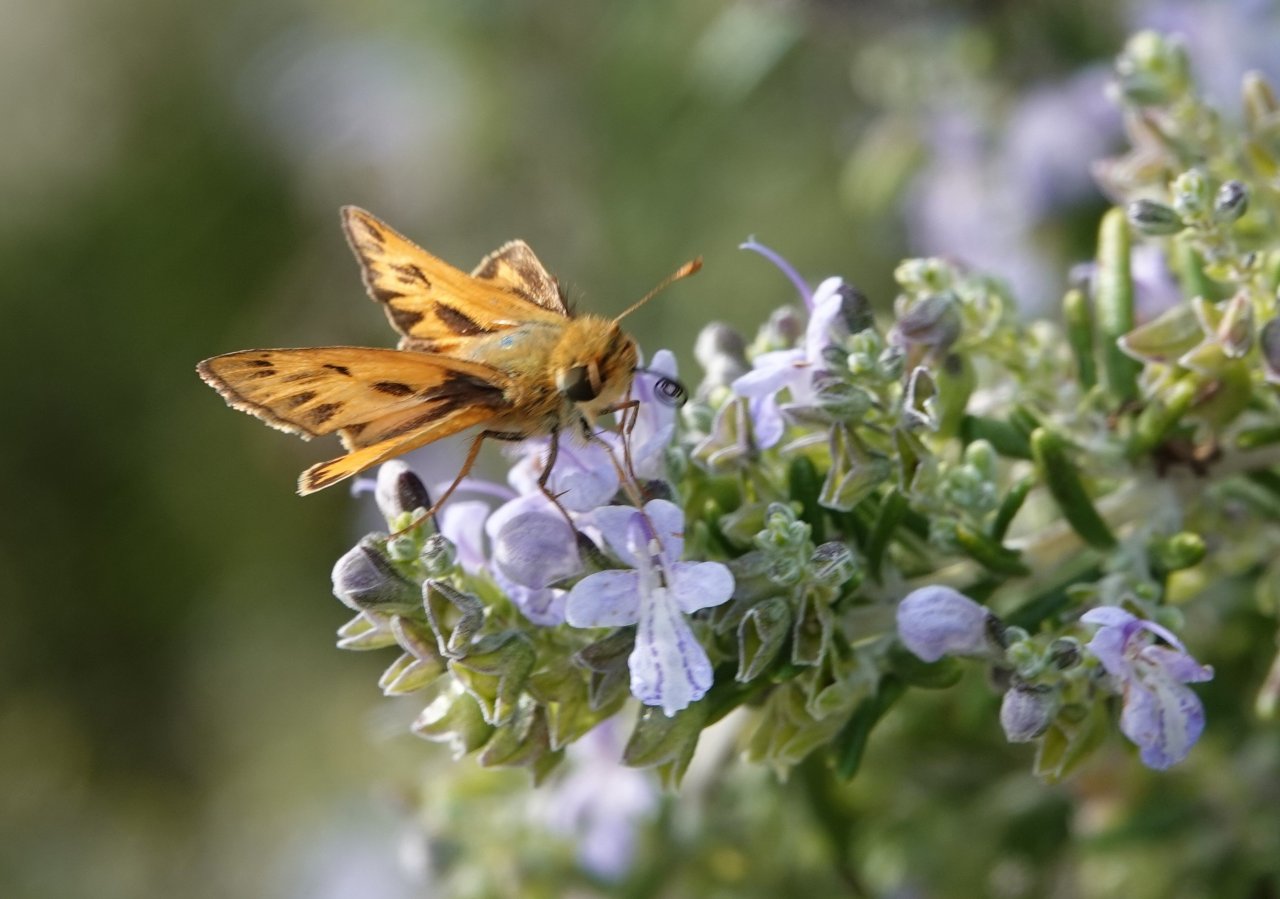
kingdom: Animalia
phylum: Arthropoda
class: Insecta
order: Lepidoptera
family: Hesperiidae
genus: Hylephila
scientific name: Hylephila phyleus
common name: Fiery Skipper
